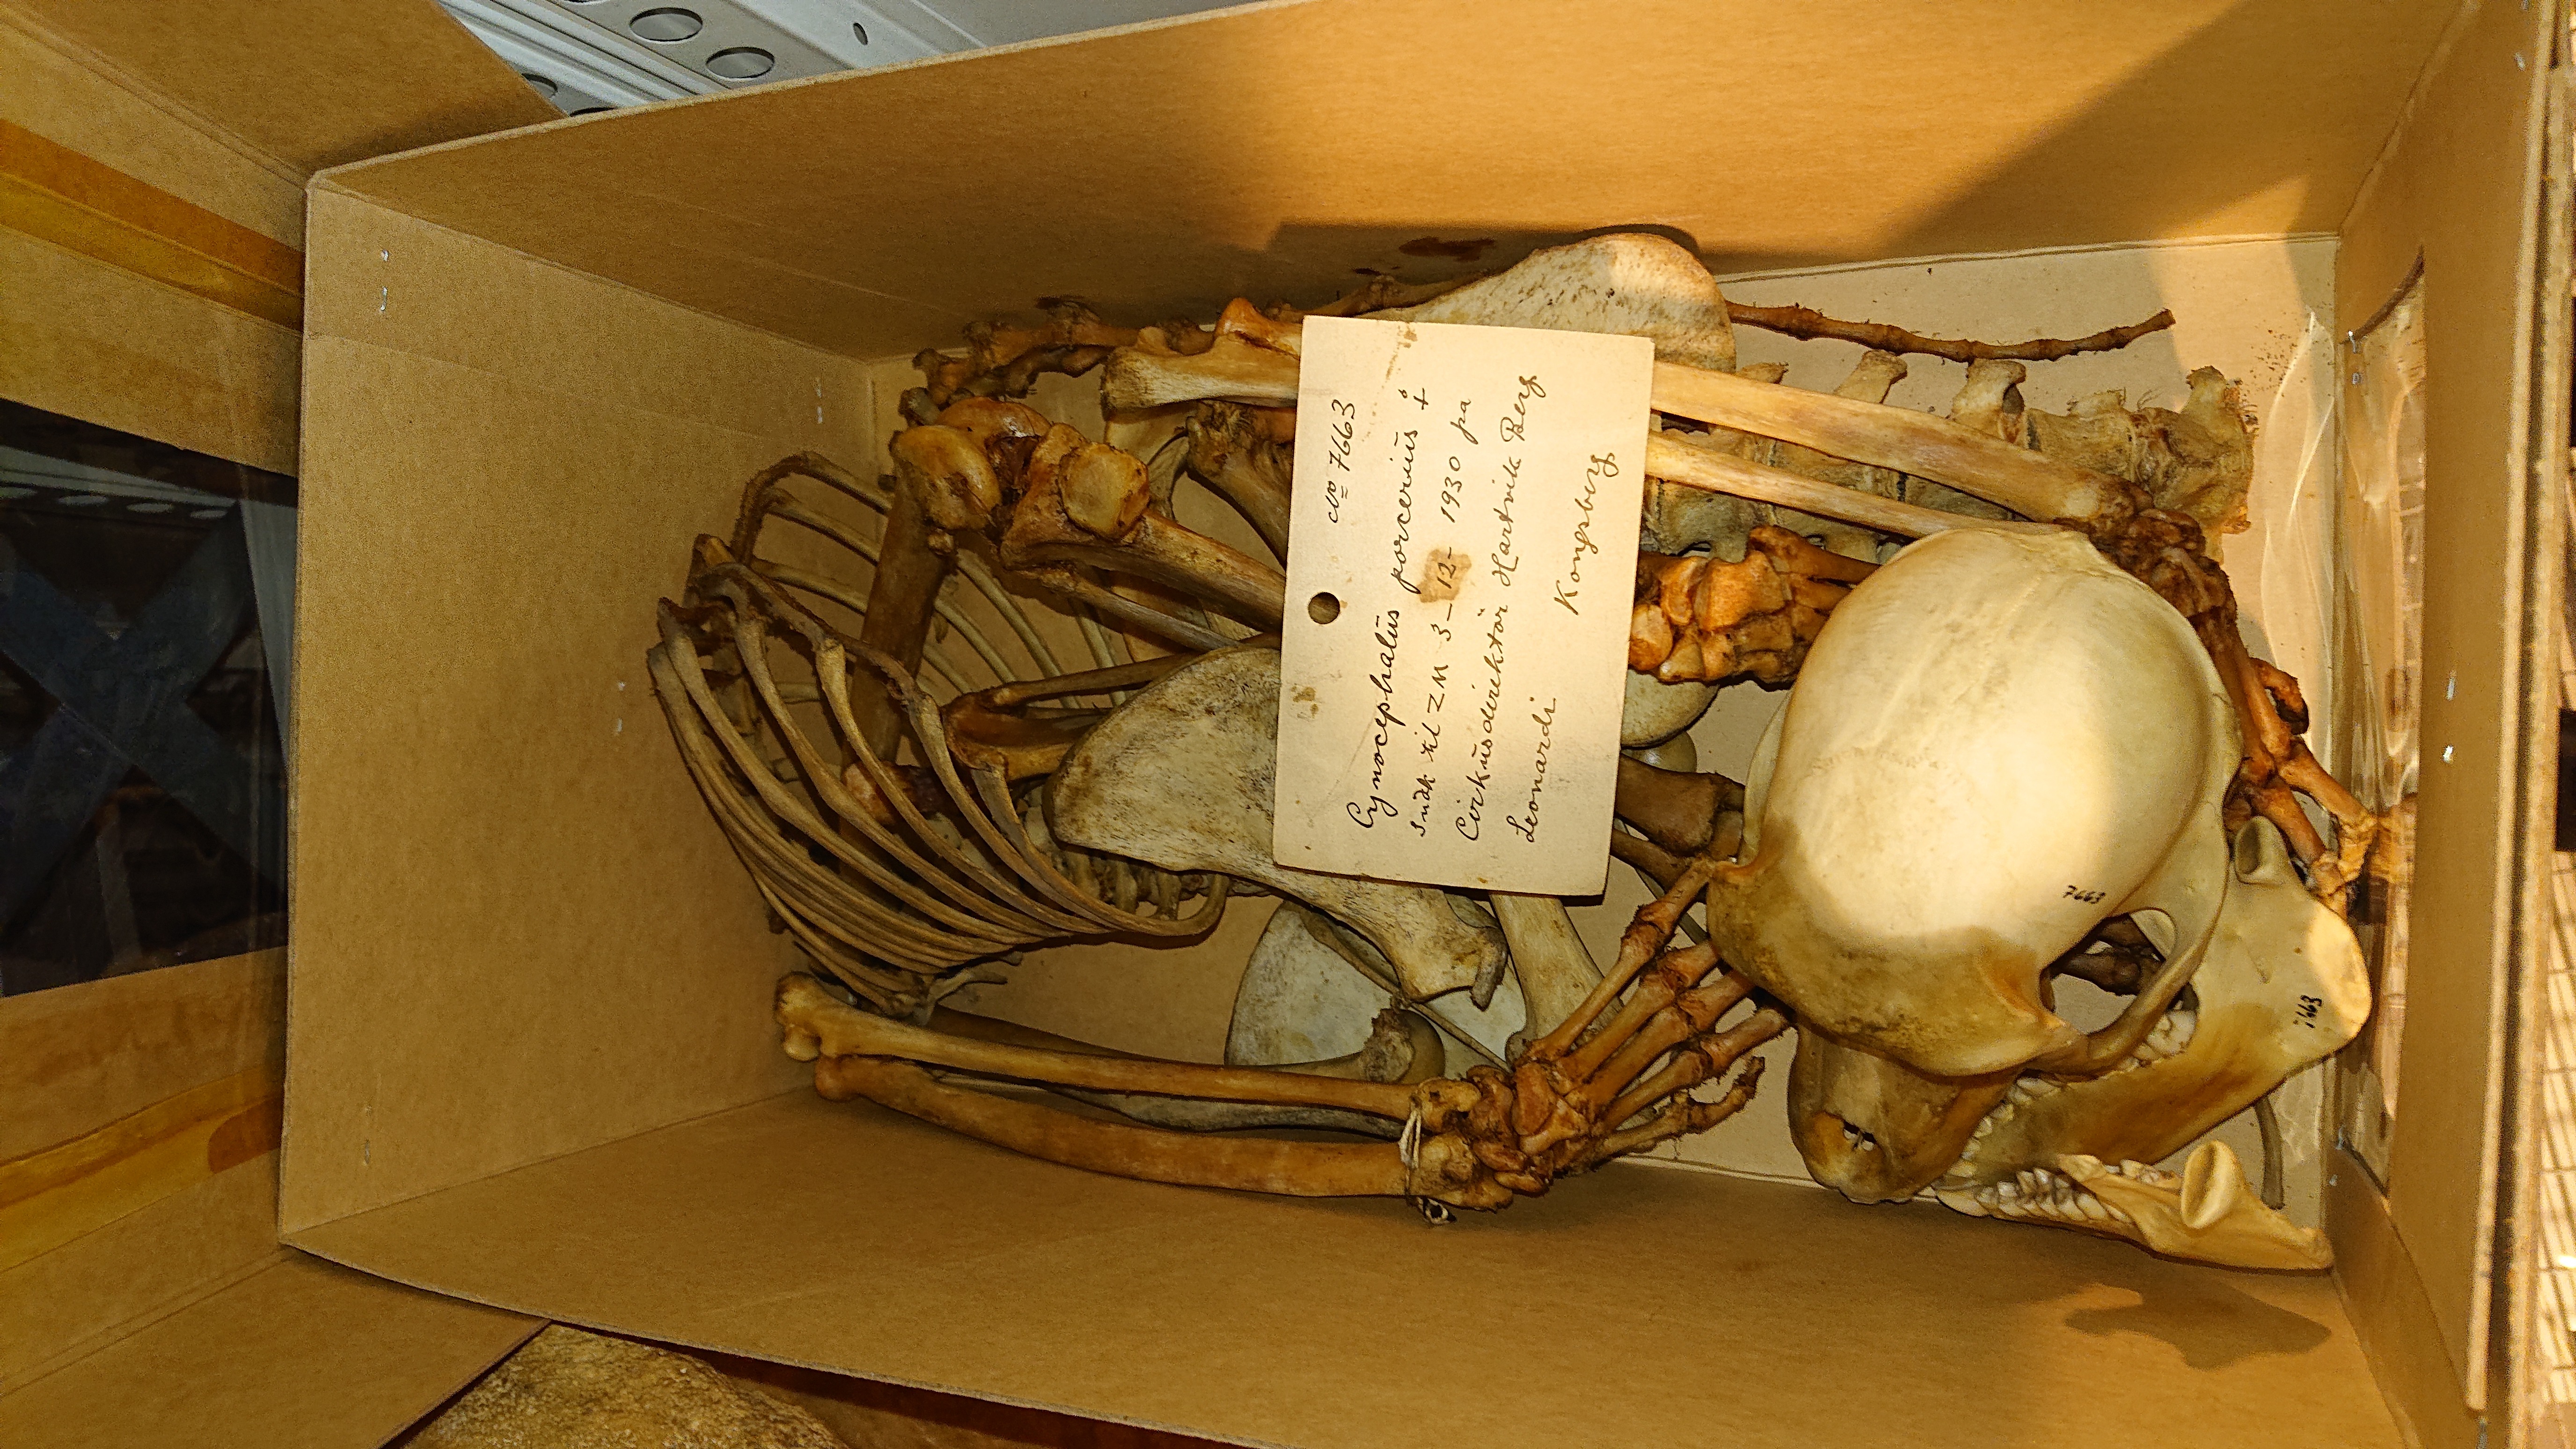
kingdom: Animalia
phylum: Chordata
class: Mammalia
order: Primates
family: Cercopithecidae
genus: Papio
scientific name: Papio ursinus
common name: Chacma baboon
